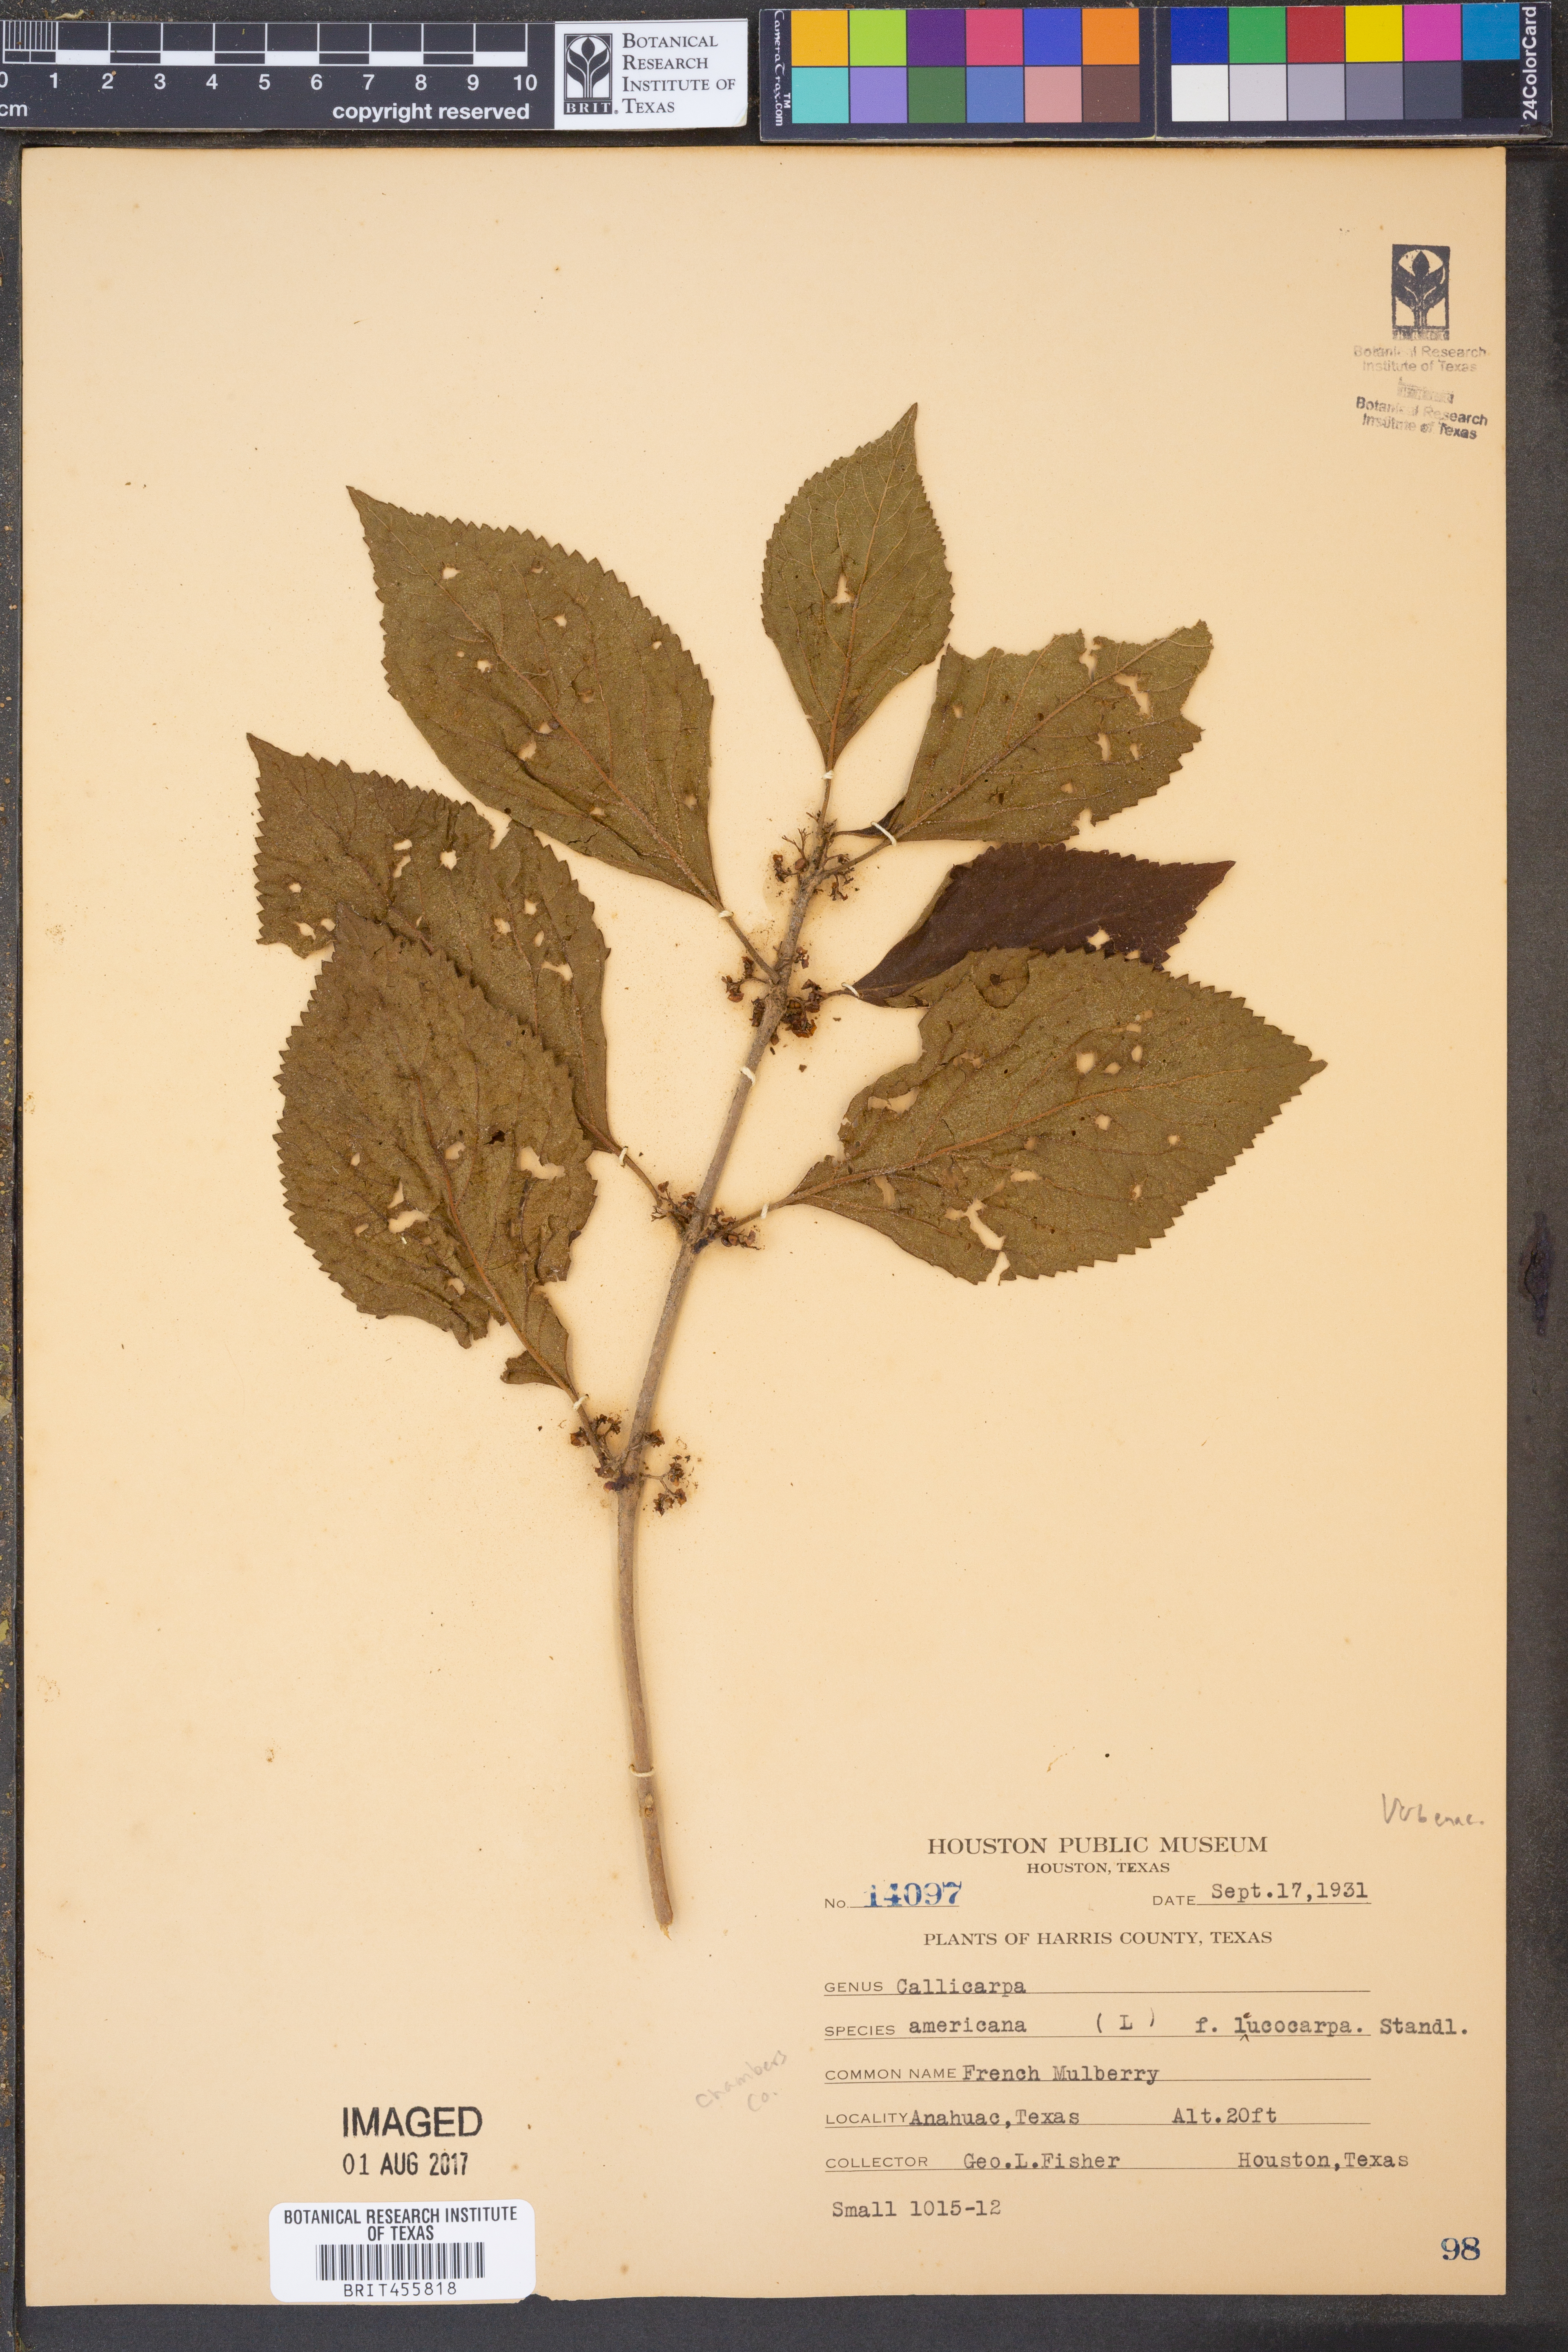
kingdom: Plantae
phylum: Tracheophyta
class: Magnoliopsida
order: Lamiales
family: Lamiaceae
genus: Callicarpa
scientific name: Callicarpa americana
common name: American beautyberry
